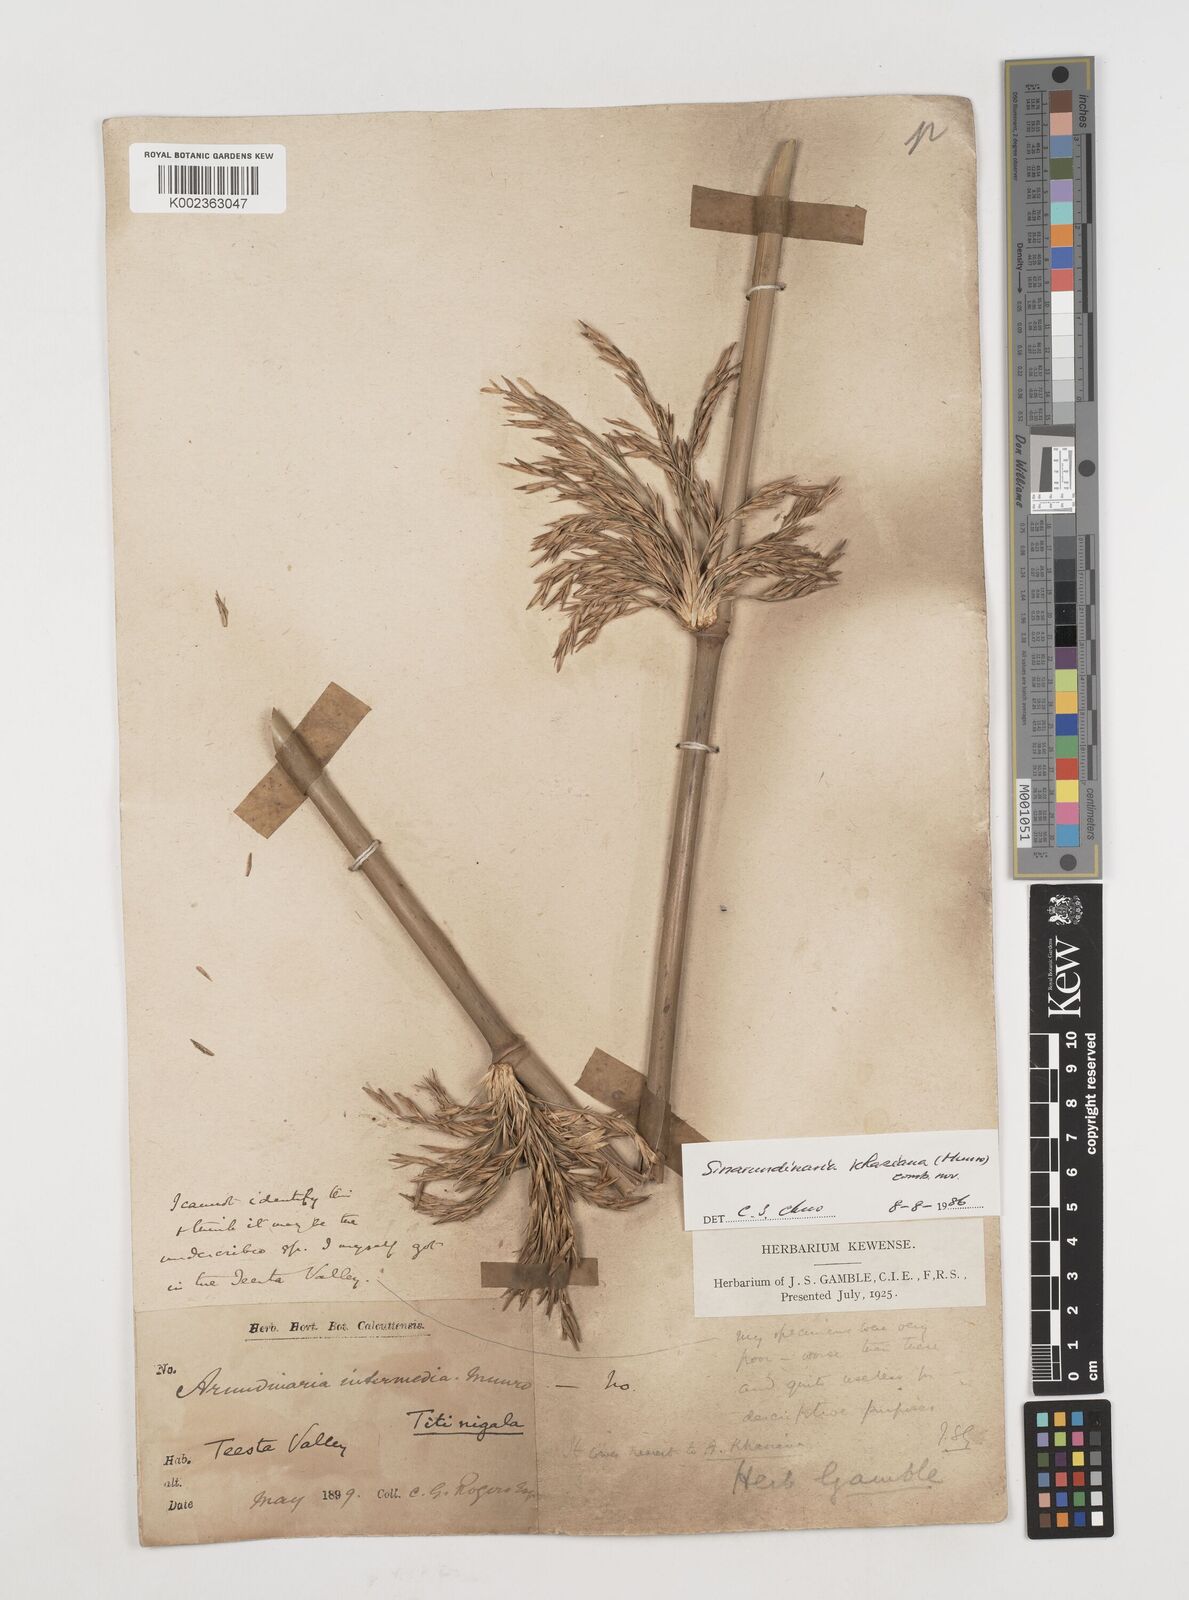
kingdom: Plantae
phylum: Tracheophyta
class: Liliopsida
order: Poales
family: Poaceae
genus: Drepanostachyum
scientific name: Drepanostachyum khasianum
